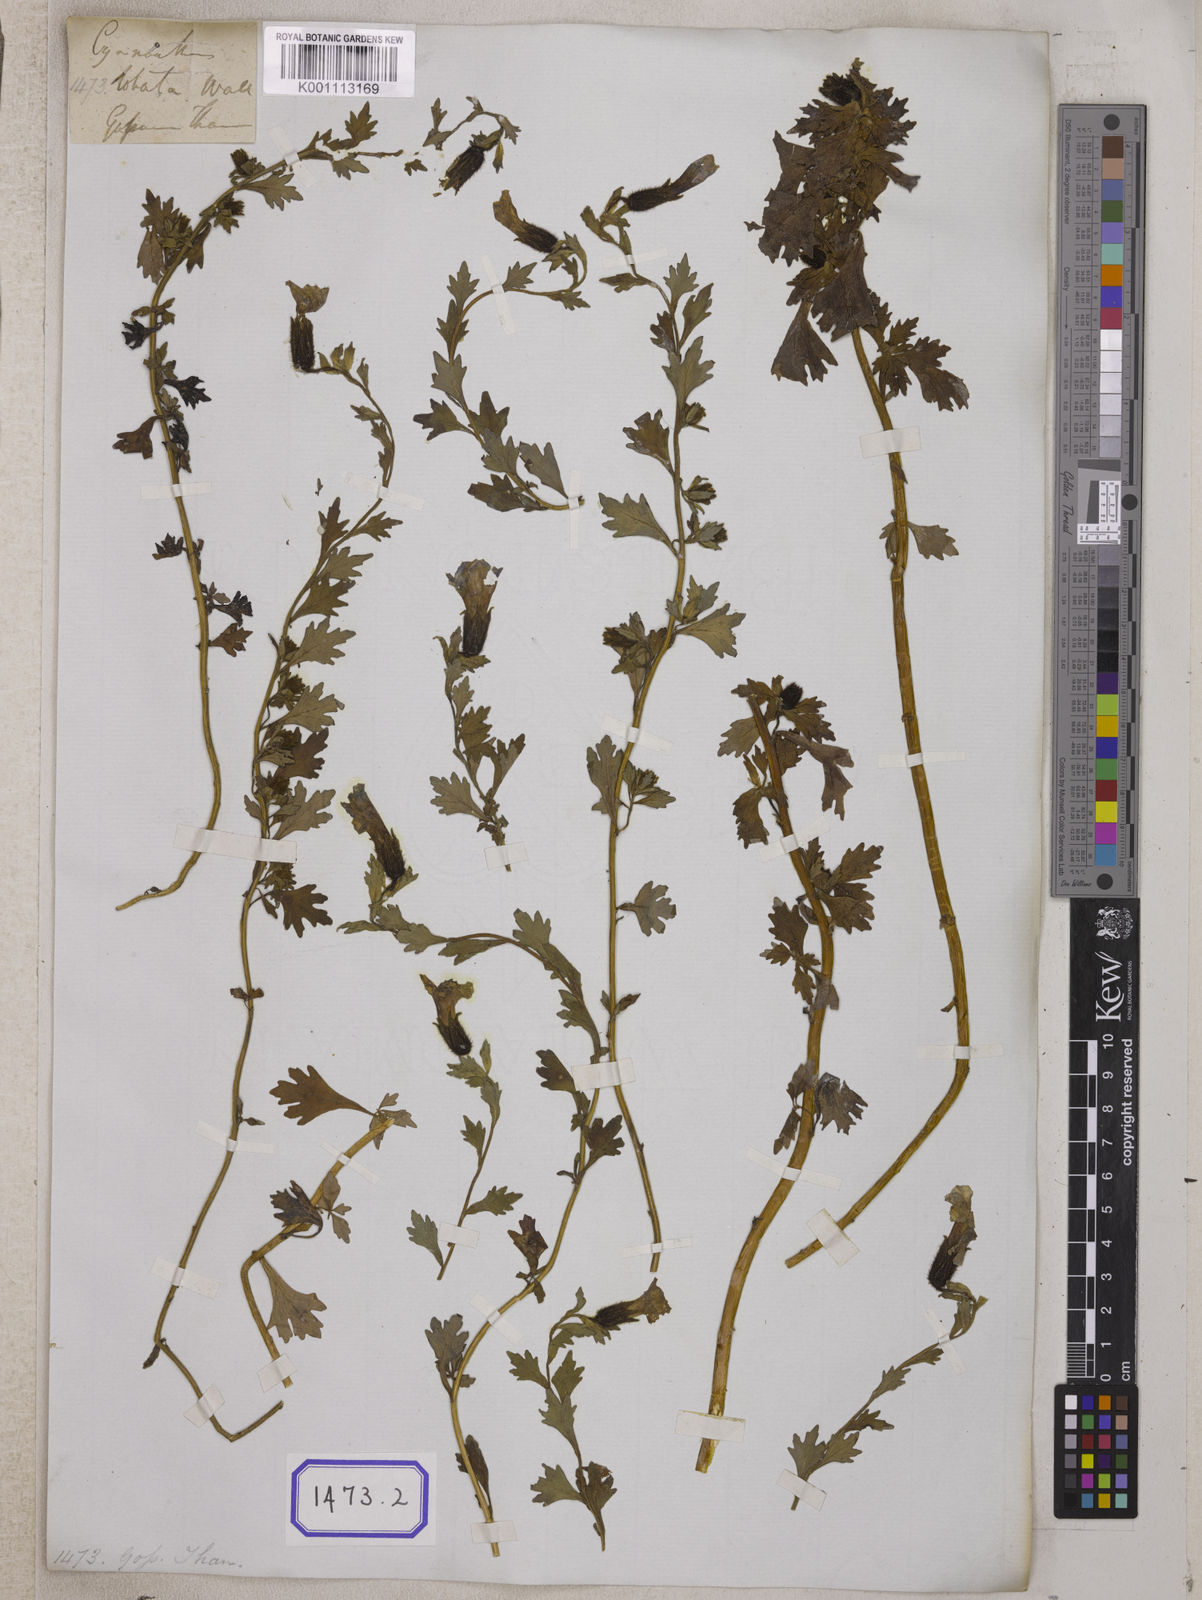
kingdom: Plantae
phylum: Tracheophyta
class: Magnoliopsida
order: Asterales
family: Campanulaceae
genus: Cyananthus
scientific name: Cyananthus
